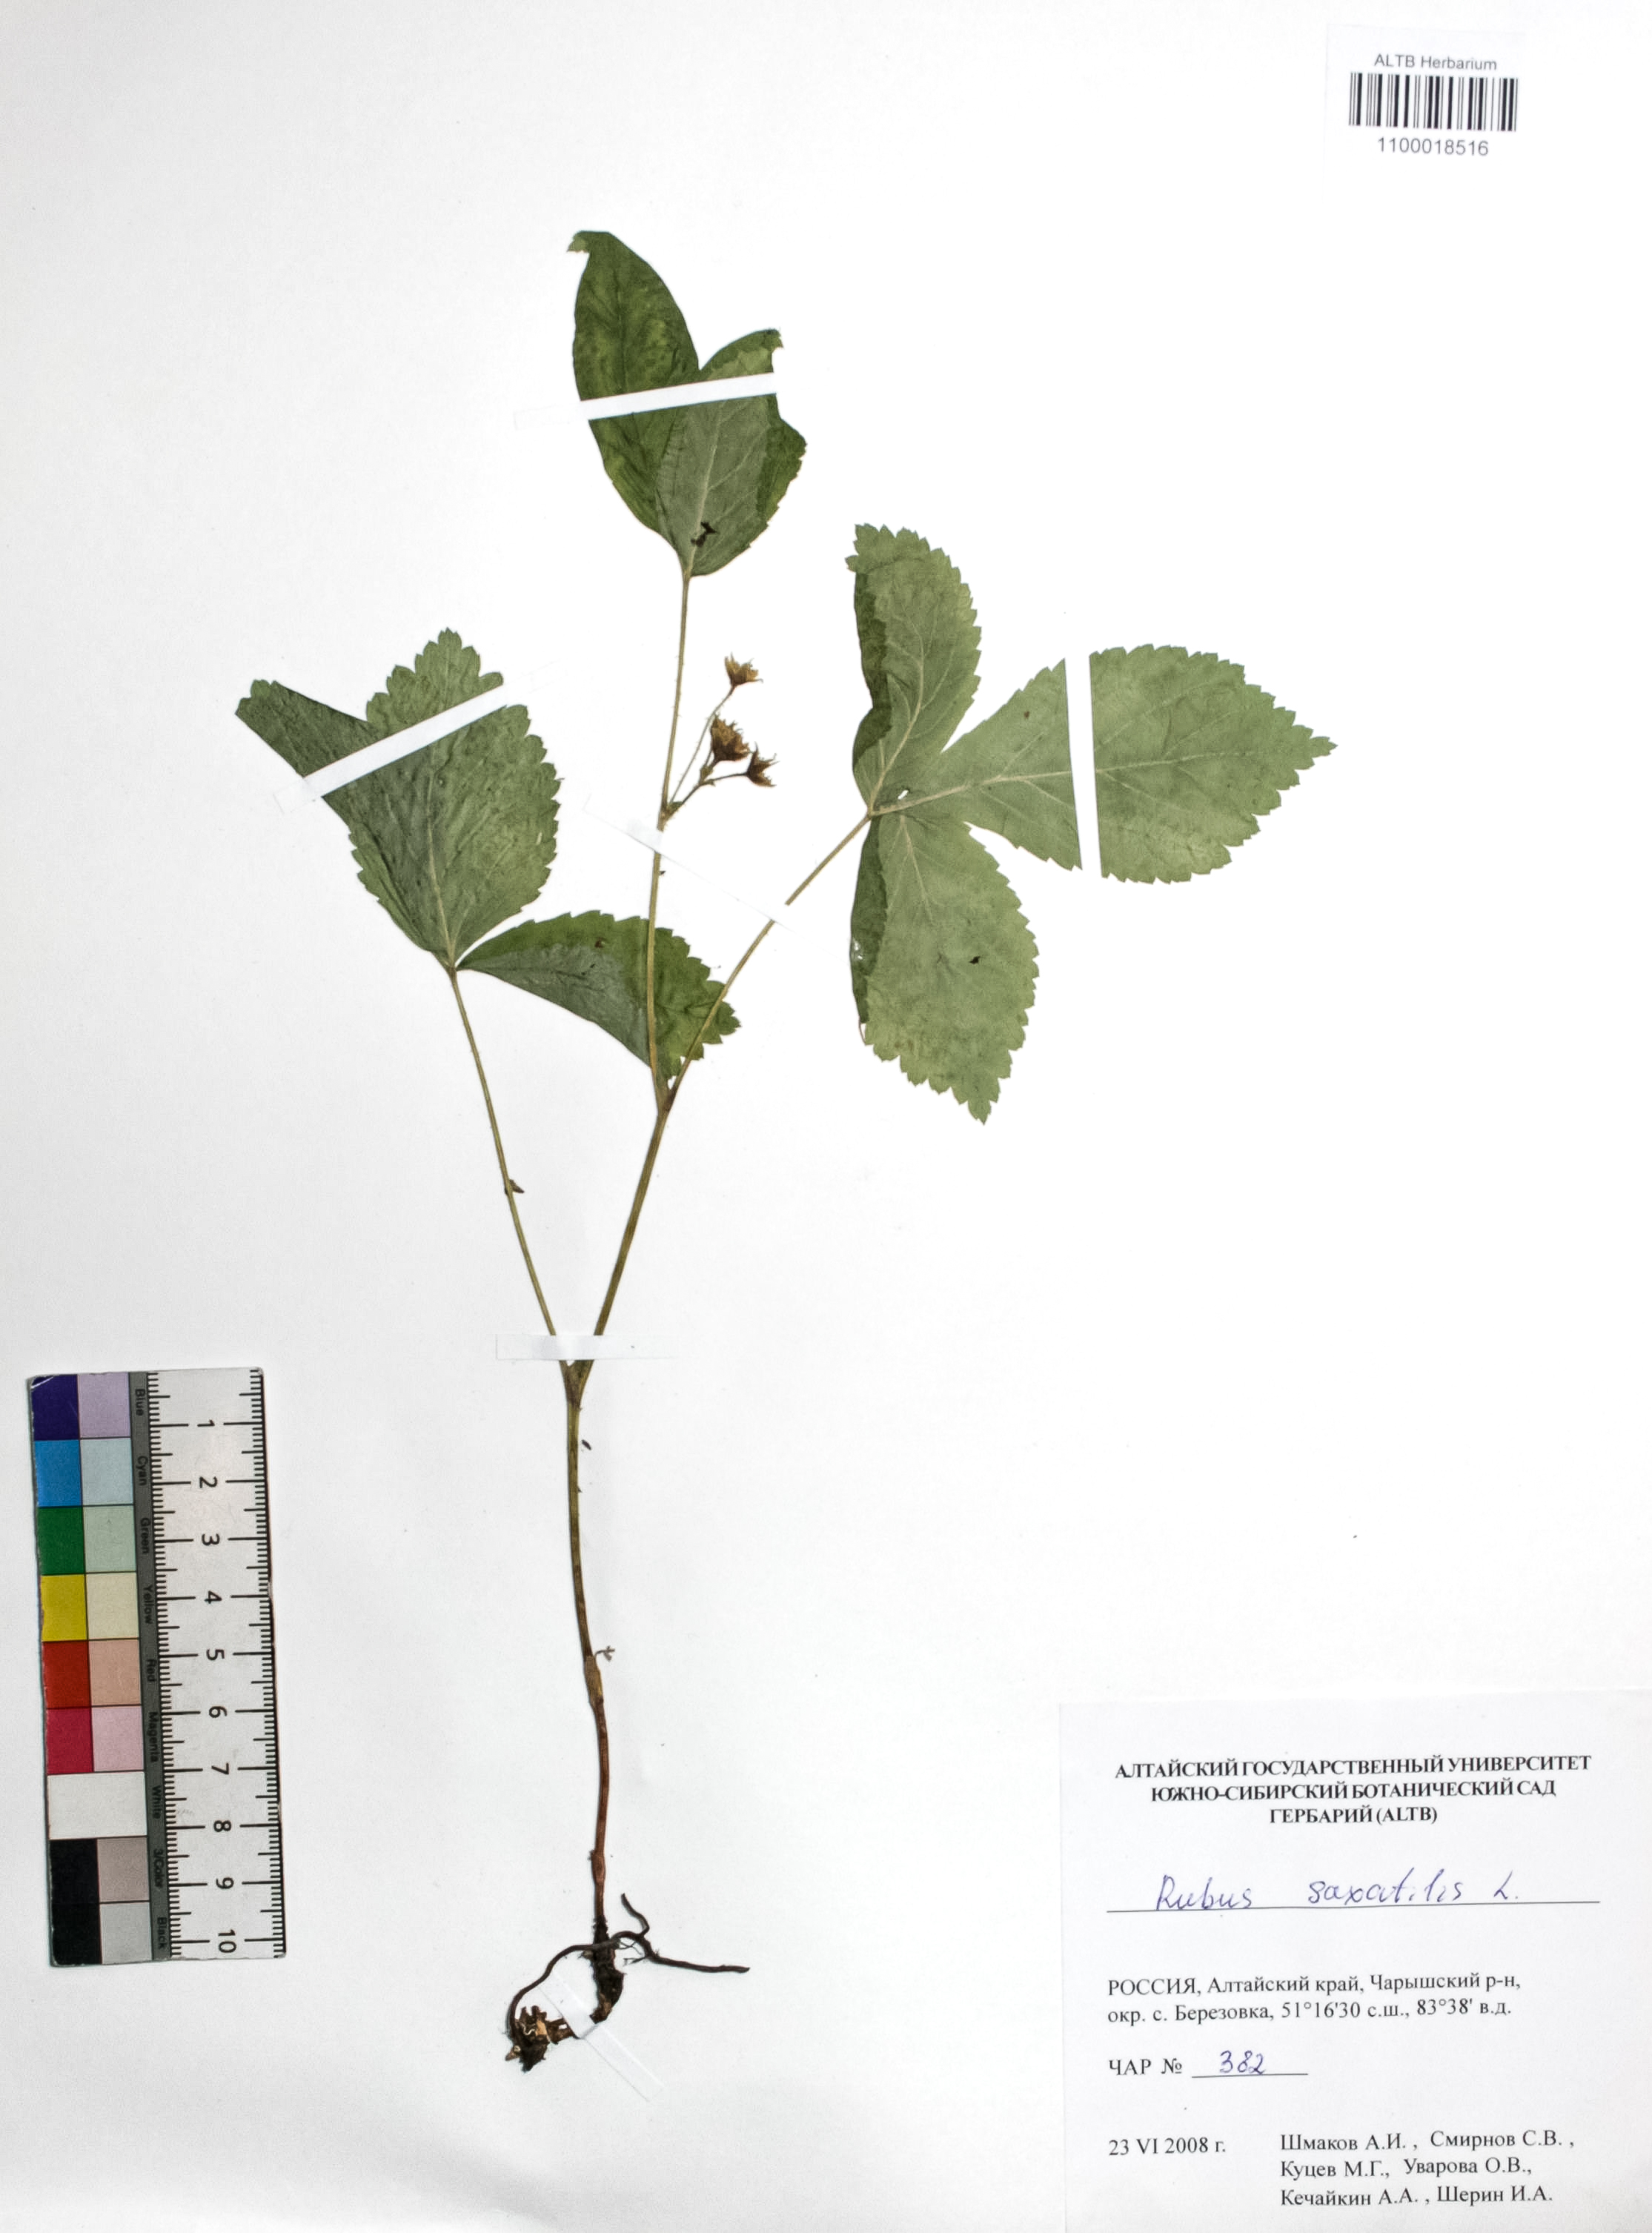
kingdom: Plantae
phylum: Tracheophyta
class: Magnoliopsida
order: Rosales
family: Rosaceae
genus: Rubus
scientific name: Rubus saxatilis
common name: Stone bramble
